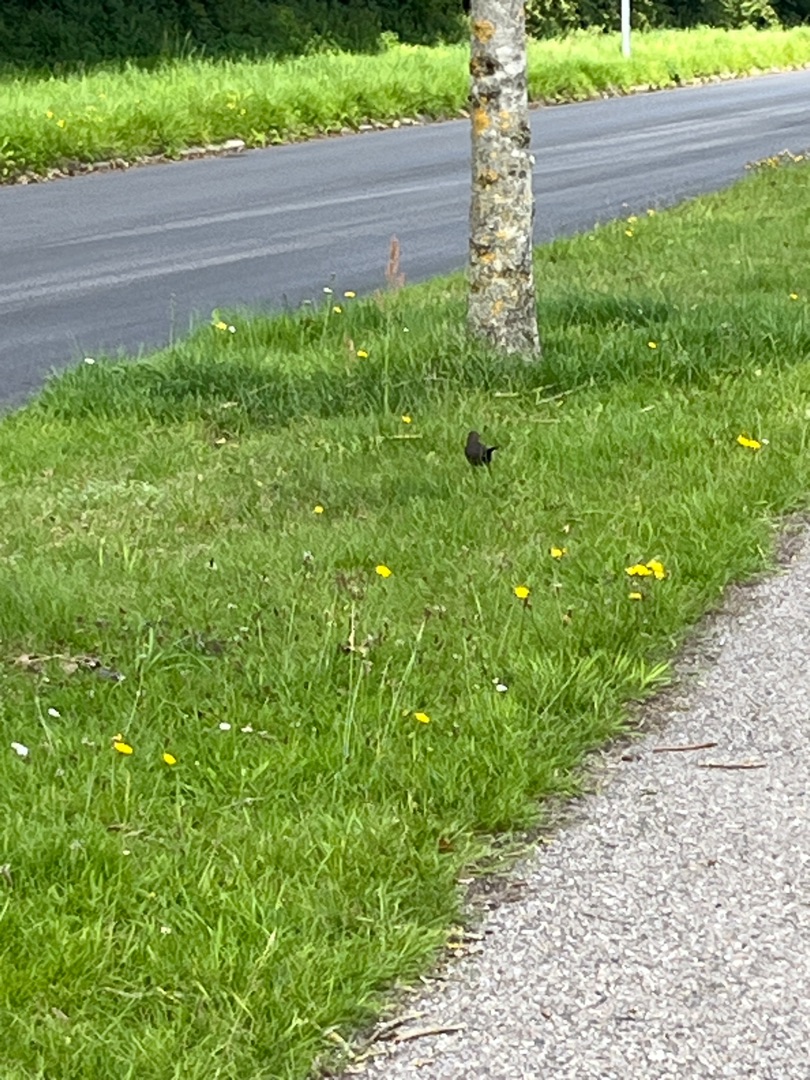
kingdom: Animalia
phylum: Chordata
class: Aves
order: Passeriformes
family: Turdidae
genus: Turdus
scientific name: Turdus merula
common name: Solsort
